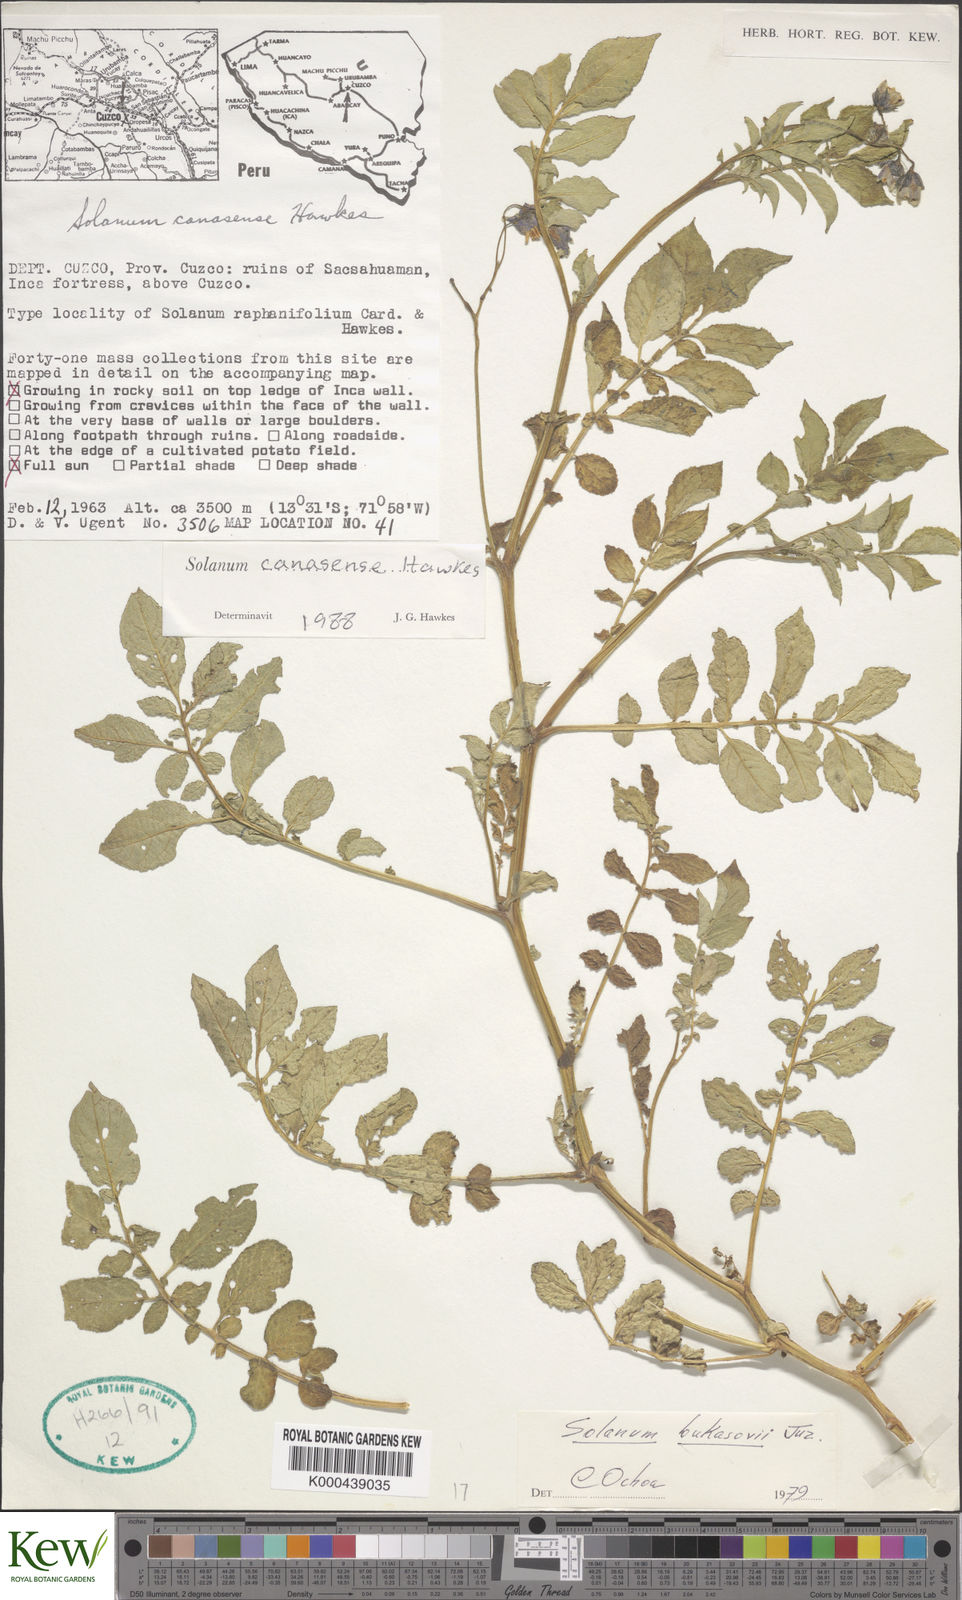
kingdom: Plantae
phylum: Tracheophyta
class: Magnoliopsida
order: Solanales
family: Solanaceae
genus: Solanum
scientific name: Solanum candolleanum
